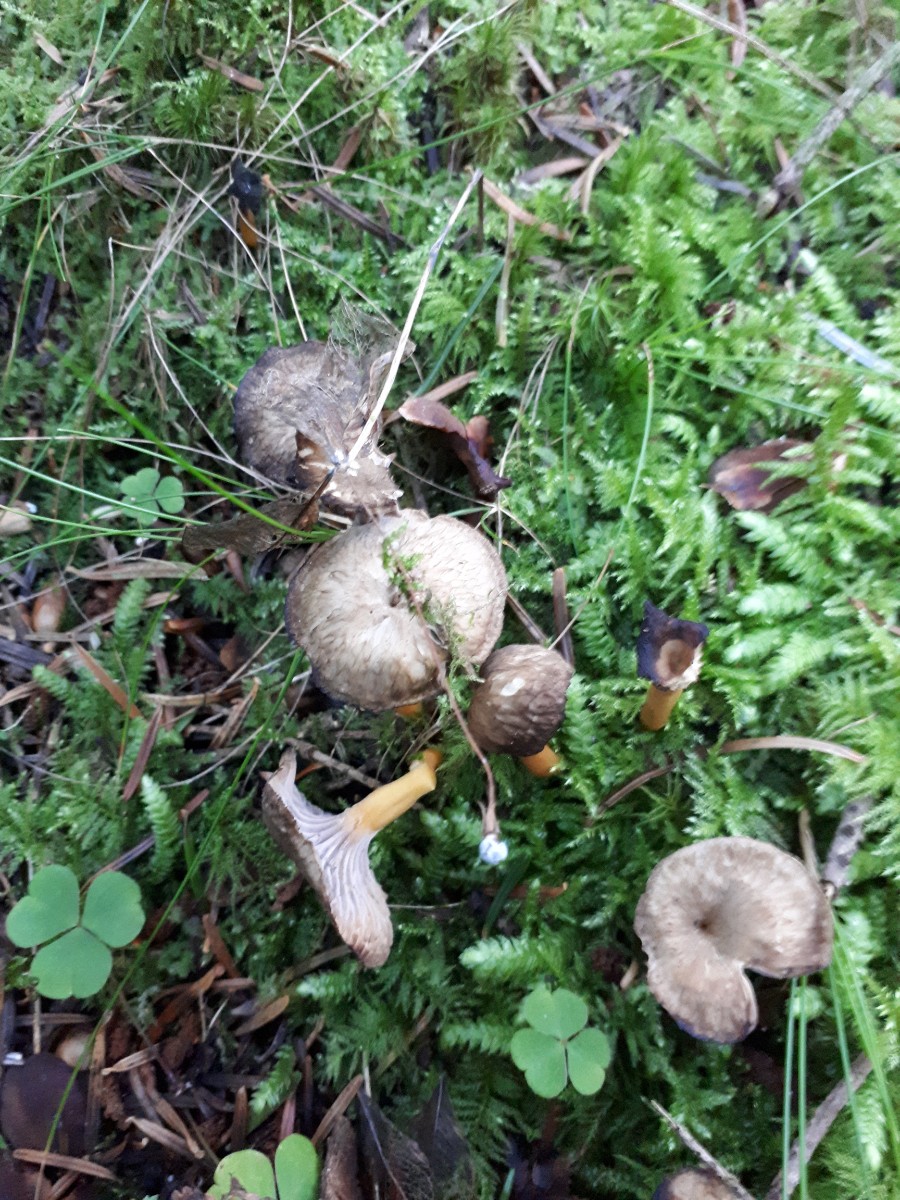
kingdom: Fungi
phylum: Basidiomycota
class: Agaricomycetes
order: Cantharellales
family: Hydnaceae
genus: Craterellus
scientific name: Craterellus tubaeformis
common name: tragt-kantarel
